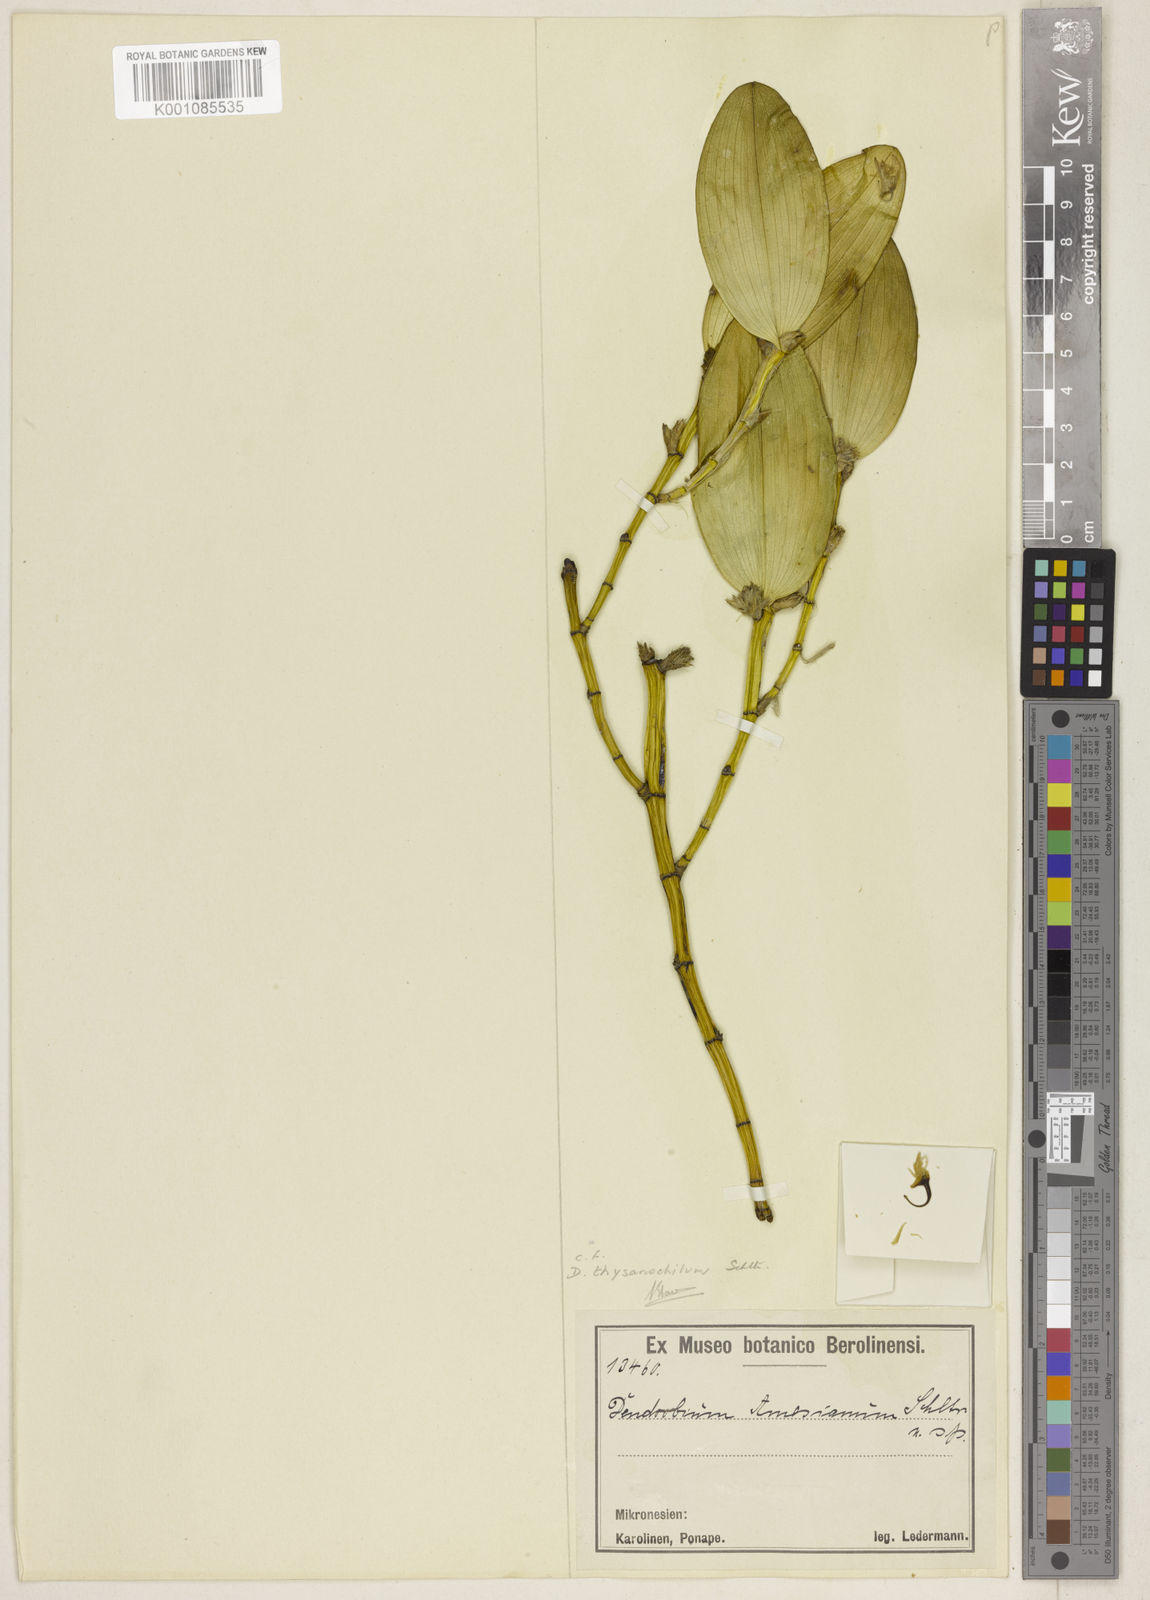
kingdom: Plantae
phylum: Tracheophyta
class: Liliopsida
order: Asparagales
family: Orchidaceae
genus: Dendrobium
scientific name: Dendrobium comatum
